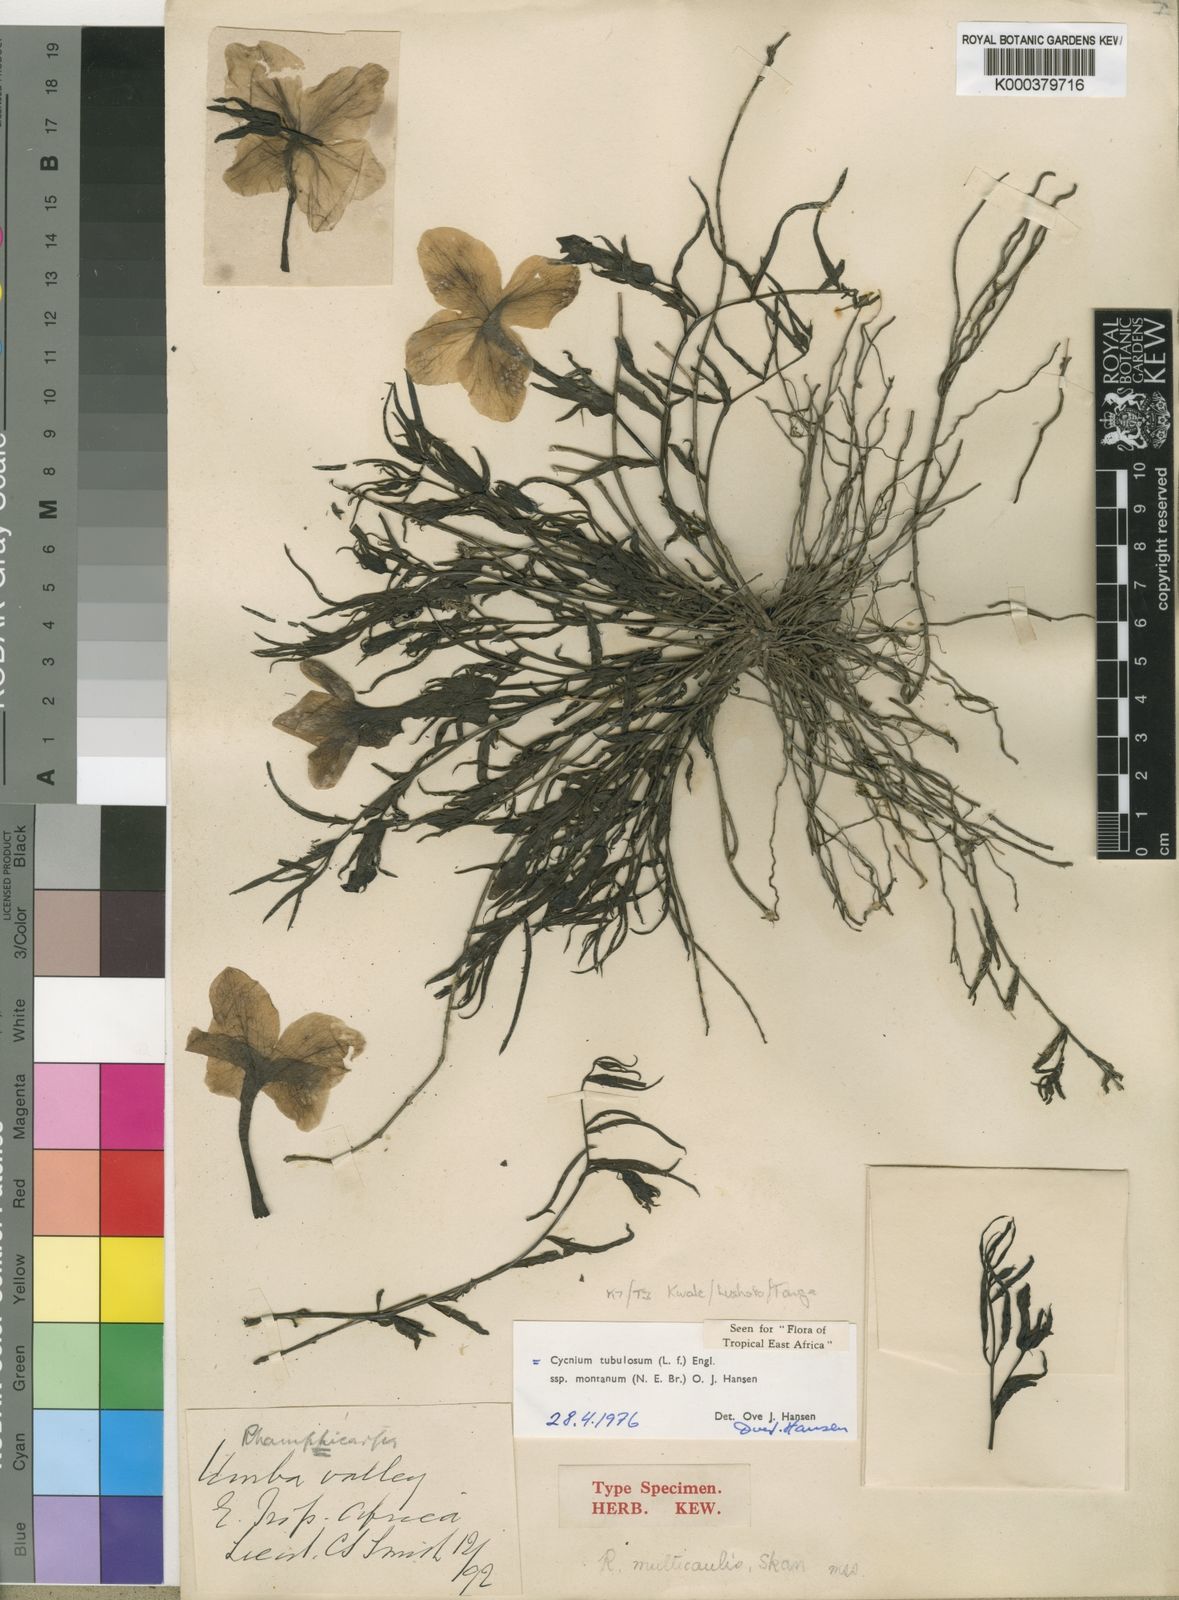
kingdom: Plantae
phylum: Tracheophyta
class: Magnoliopsida
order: Lamiales
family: Orobanchaceae
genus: Cycnium
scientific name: Cycnium tubulosum
